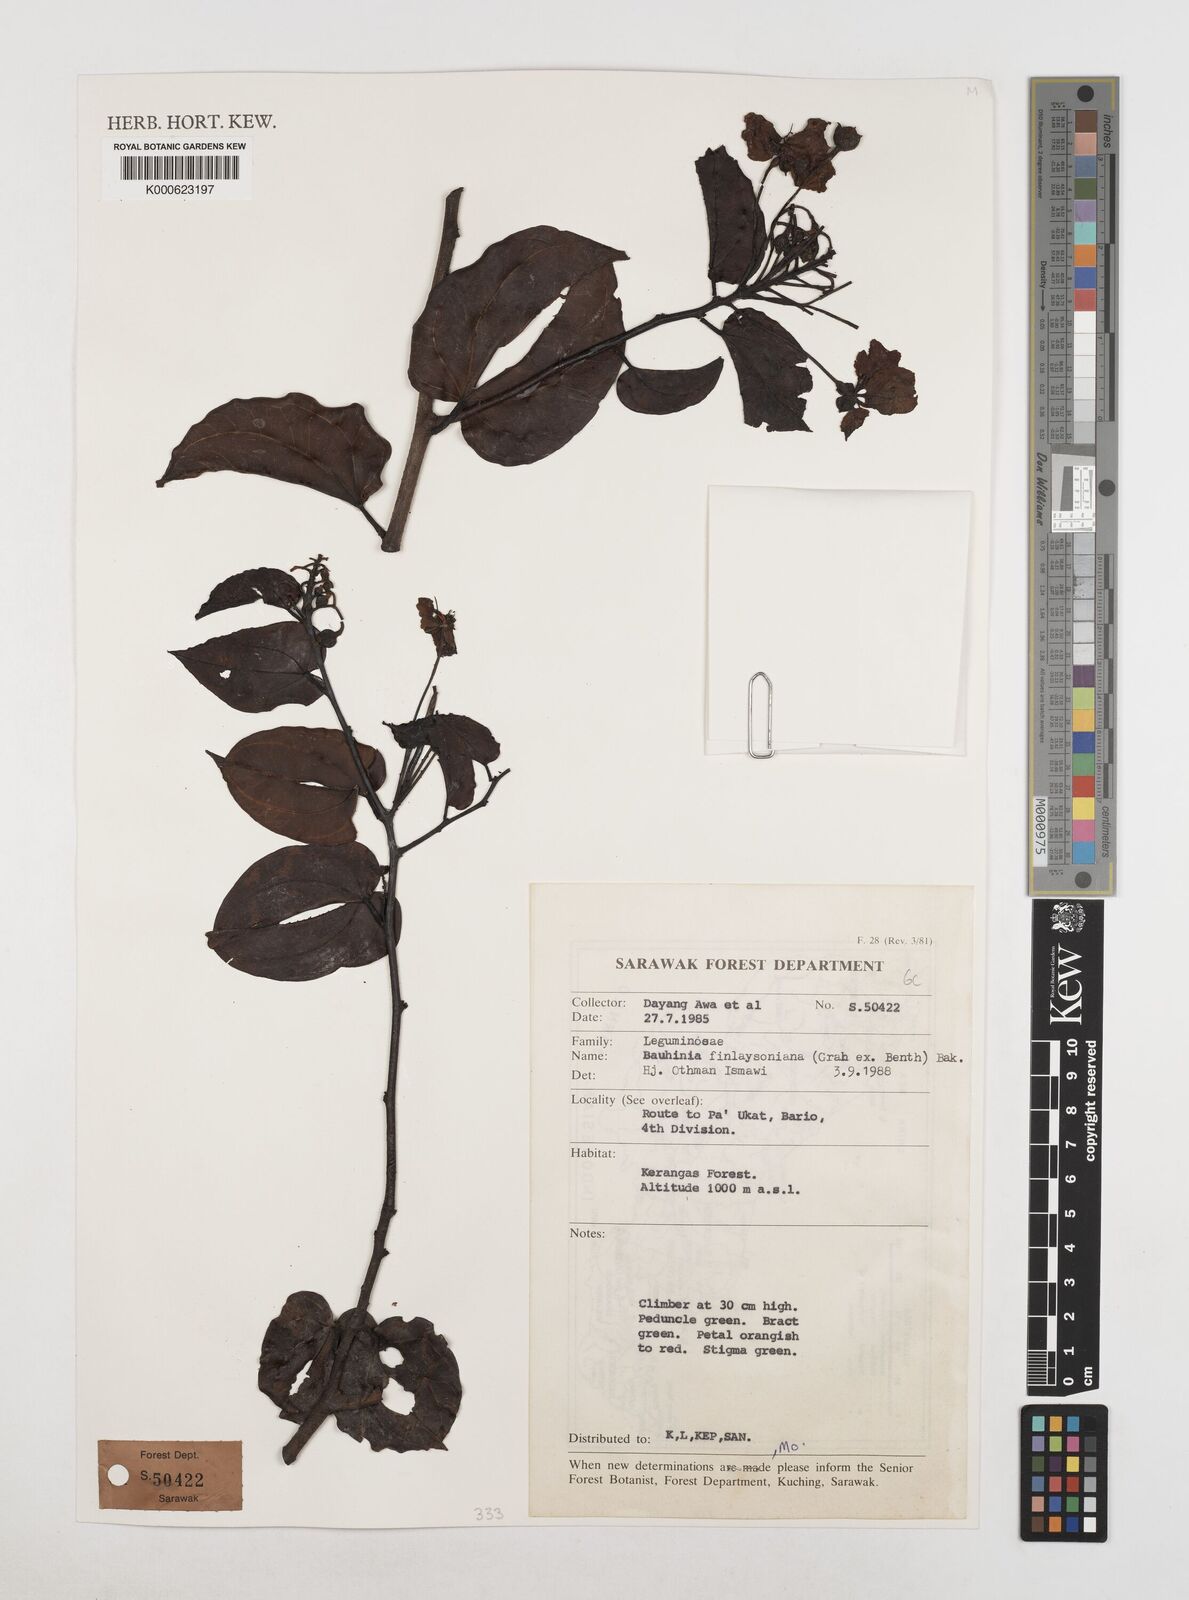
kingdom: Plantae
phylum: Tracheophyta
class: Magnoliopsida
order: Fabales
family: Fabaceae
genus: Phanera
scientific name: Phanera finlaysoniana
